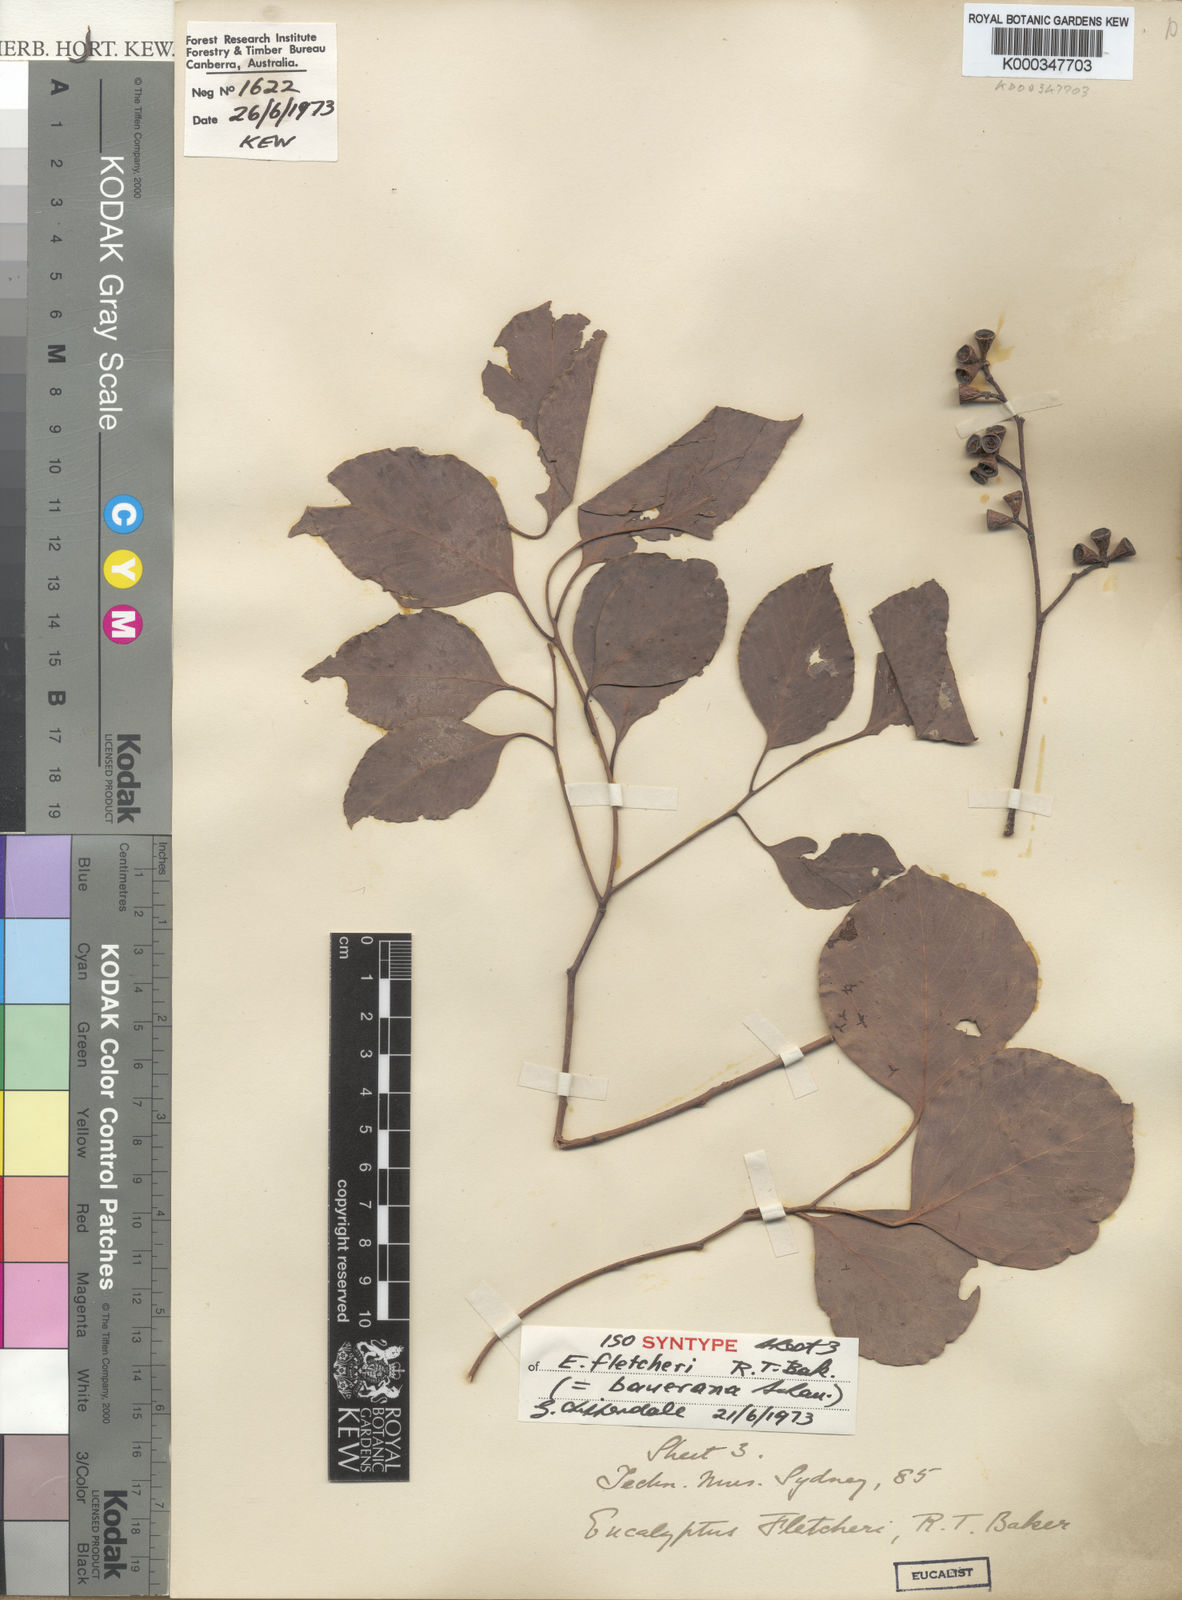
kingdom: Plantae
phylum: Tracheophyta
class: Magnoliopsida
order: Myrtales
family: Myrtaceae
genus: Eucalyptus
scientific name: Eucalyptus baueriana
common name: Round-leaf-box
